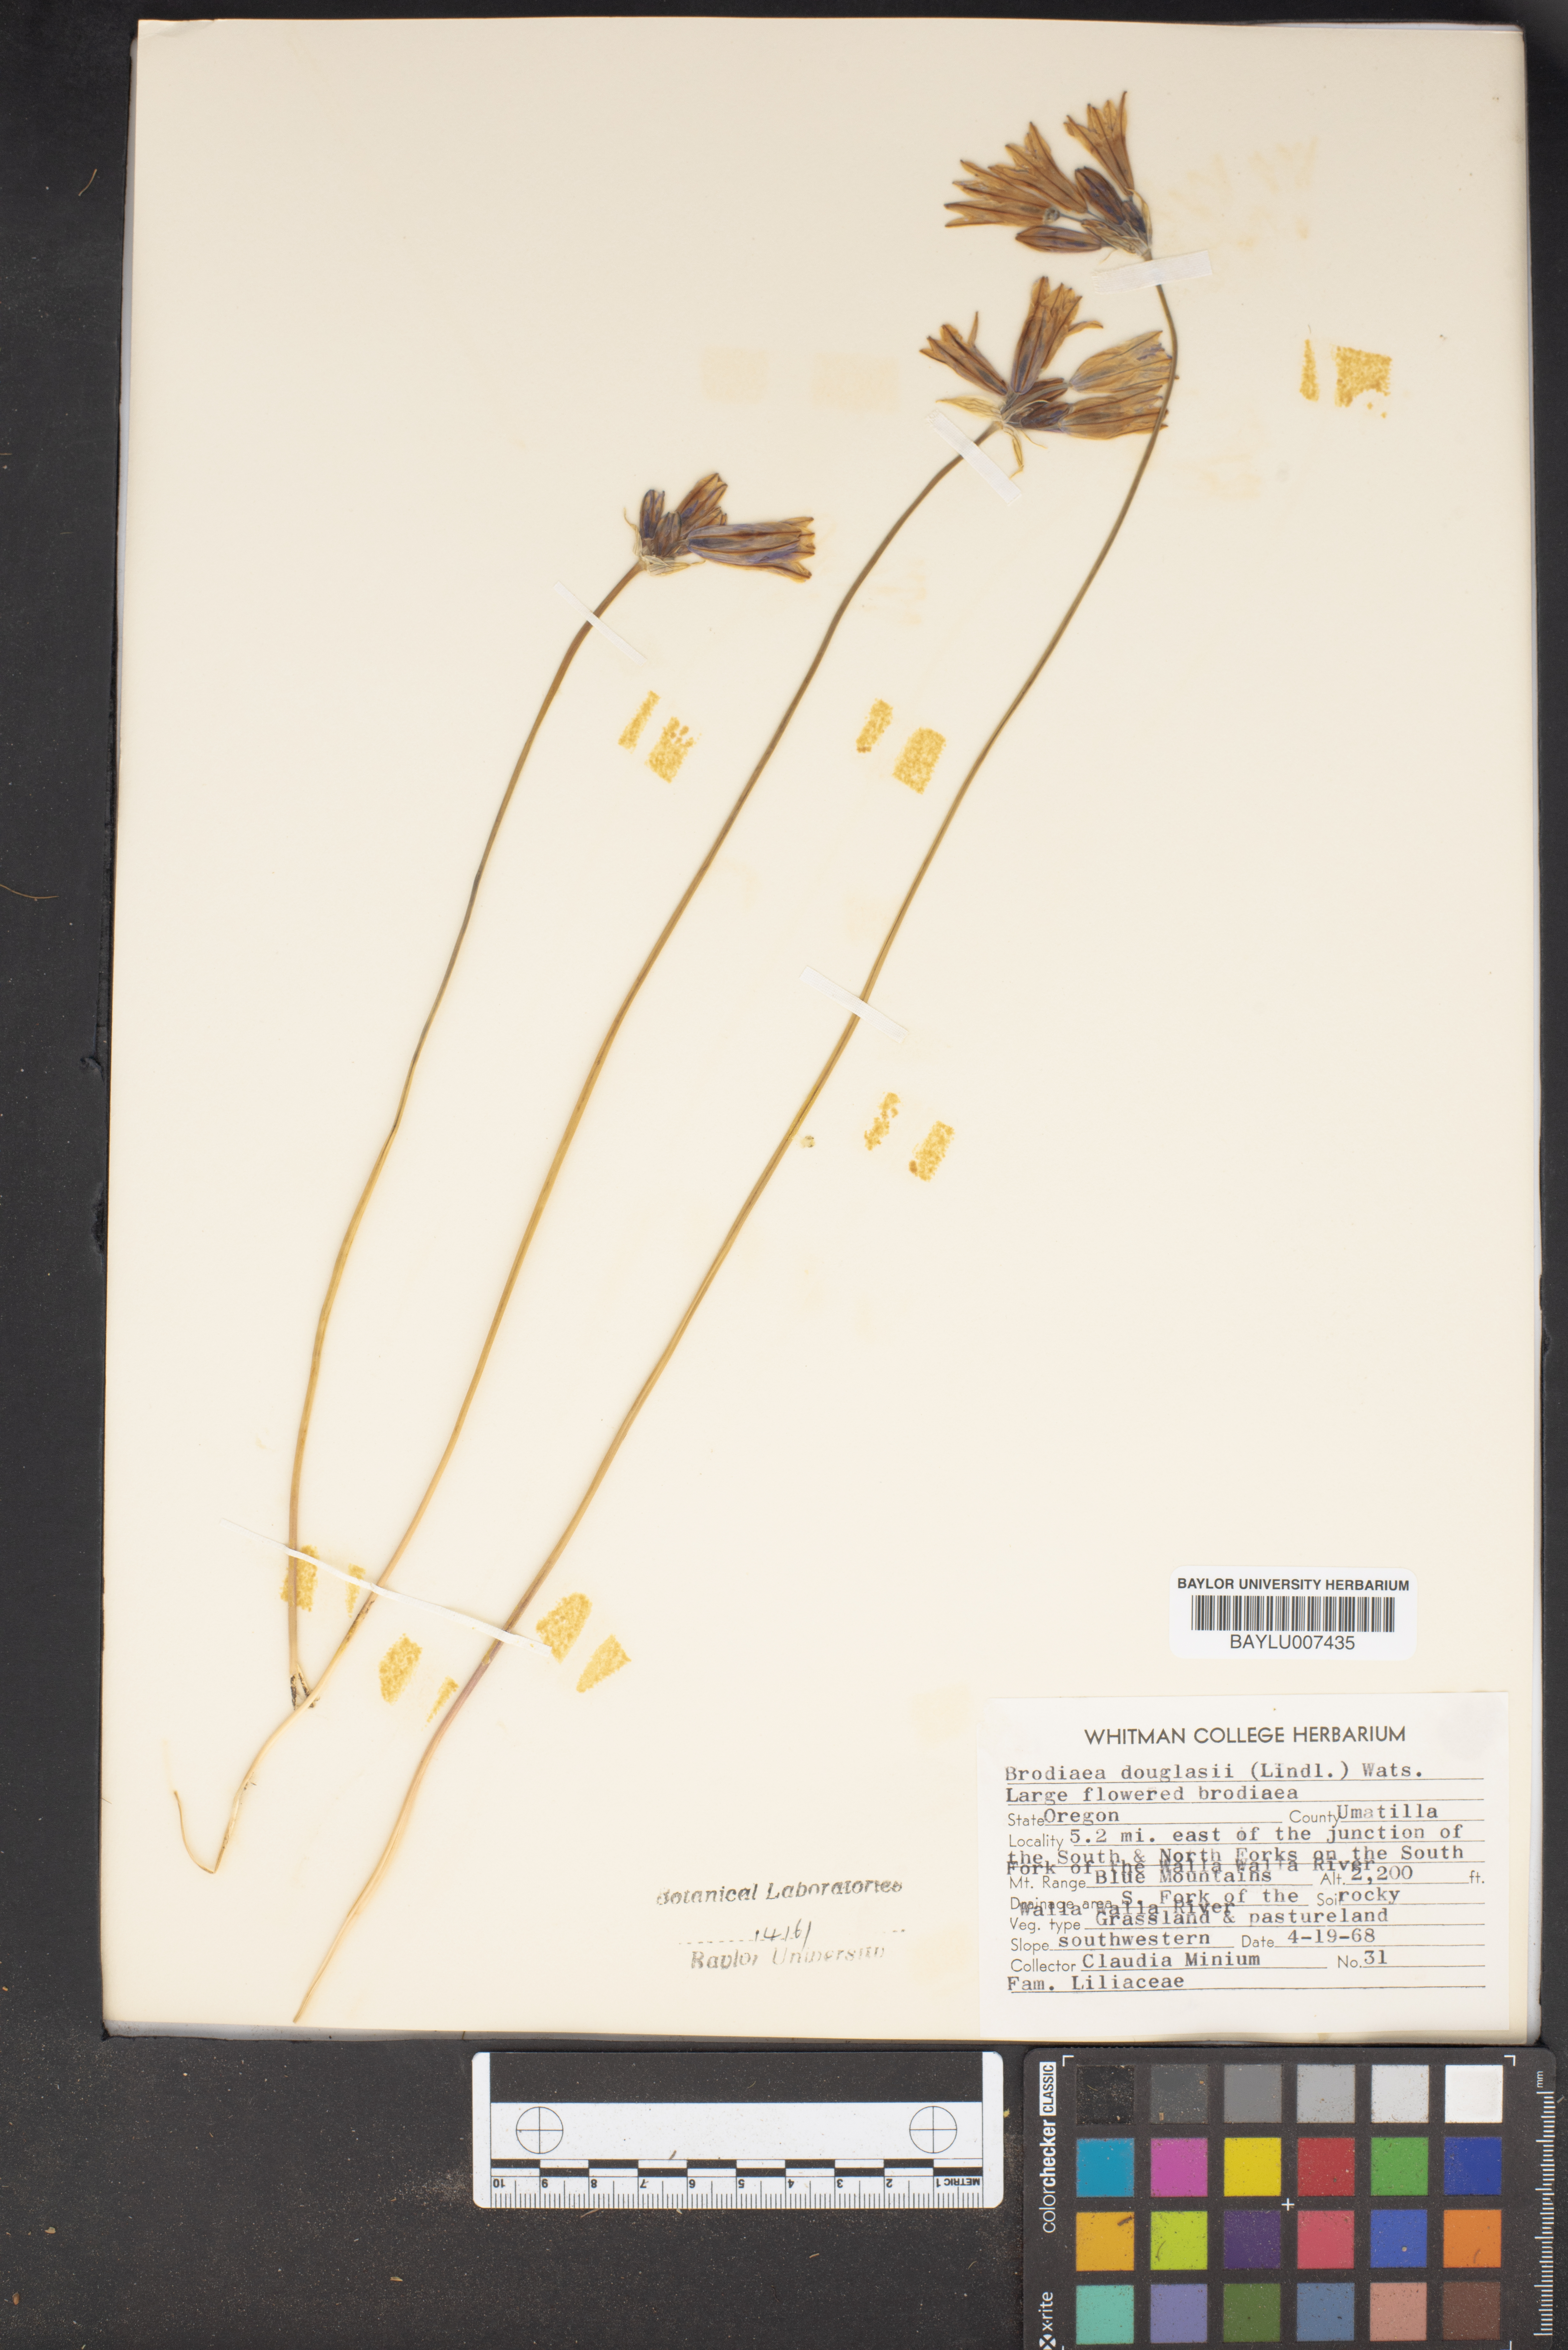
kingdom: Plantae
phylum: Tracheophyta
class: Liliopsida
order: Asparagales
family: Asparagaceae
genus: Triteleia
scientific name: Triteleia grandiflora
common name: Wild hyacinth
